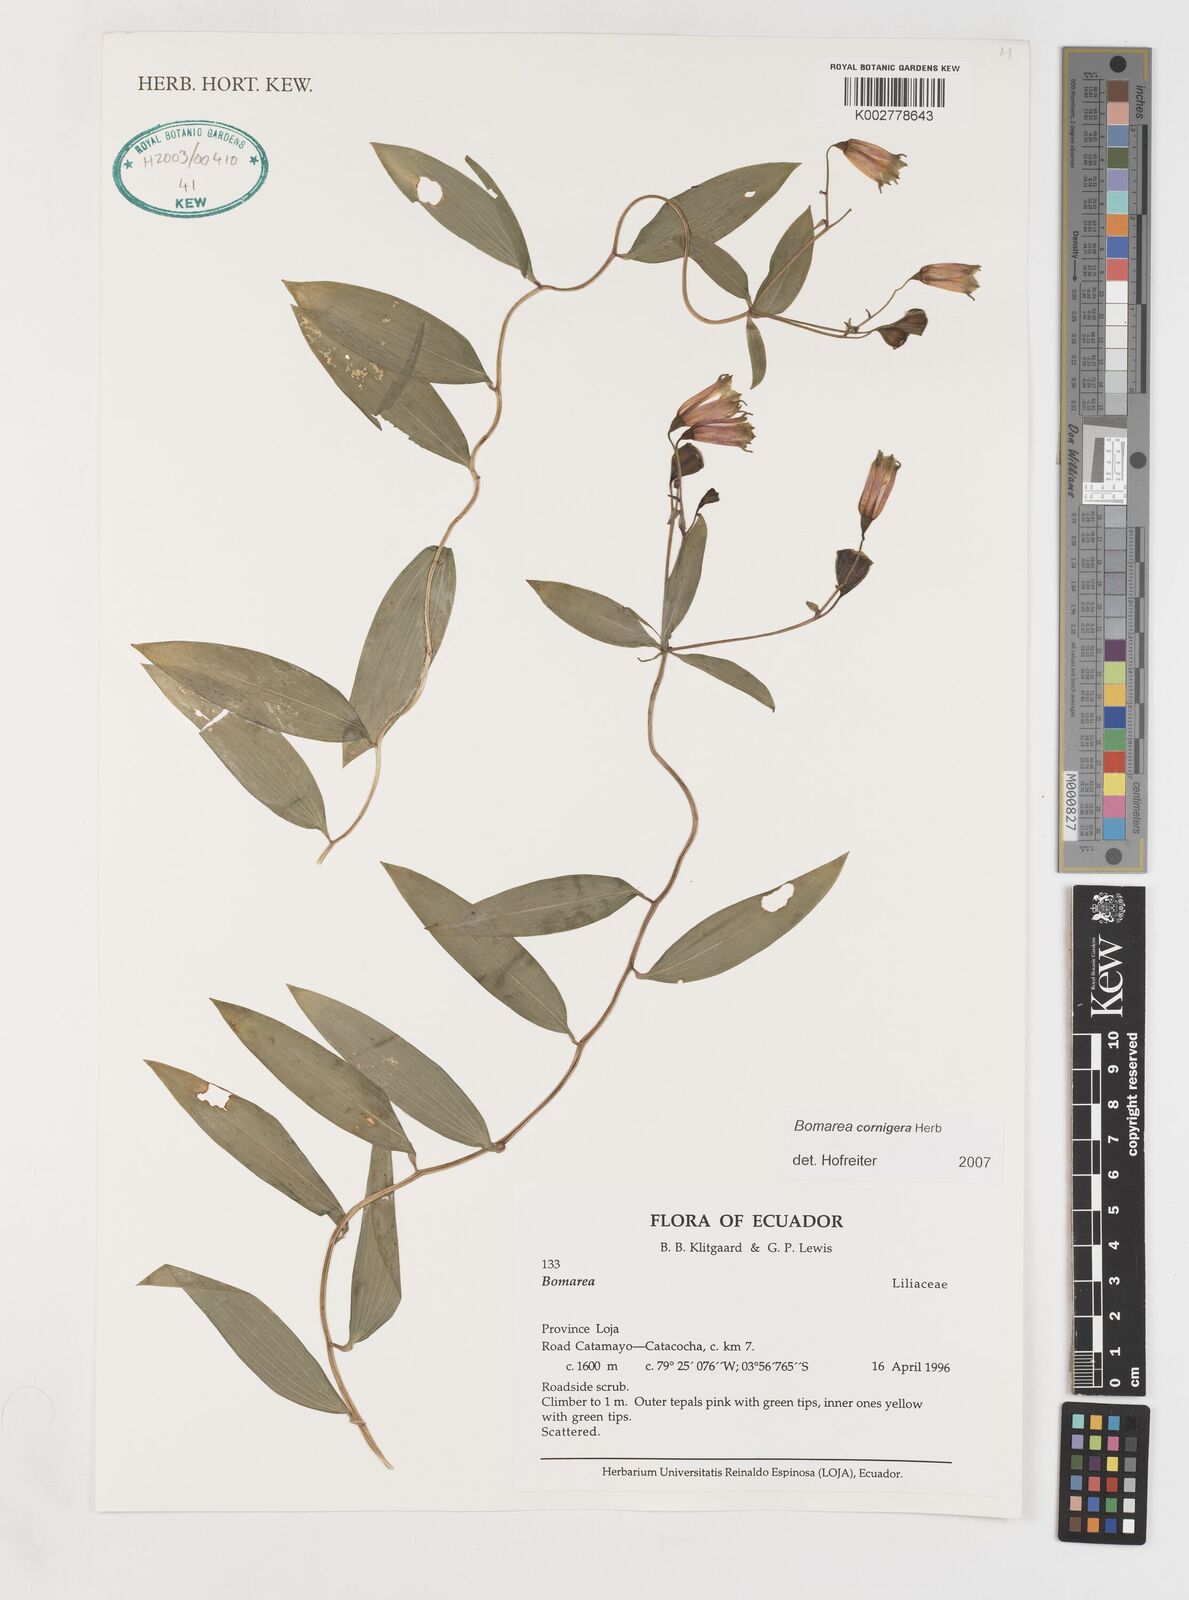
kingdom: Plantae
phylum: Tracheophyta
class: Liliopsida
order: Liliales
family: Alstroemeriaceae
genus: Bomarea
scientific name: Bomarea cornigera
